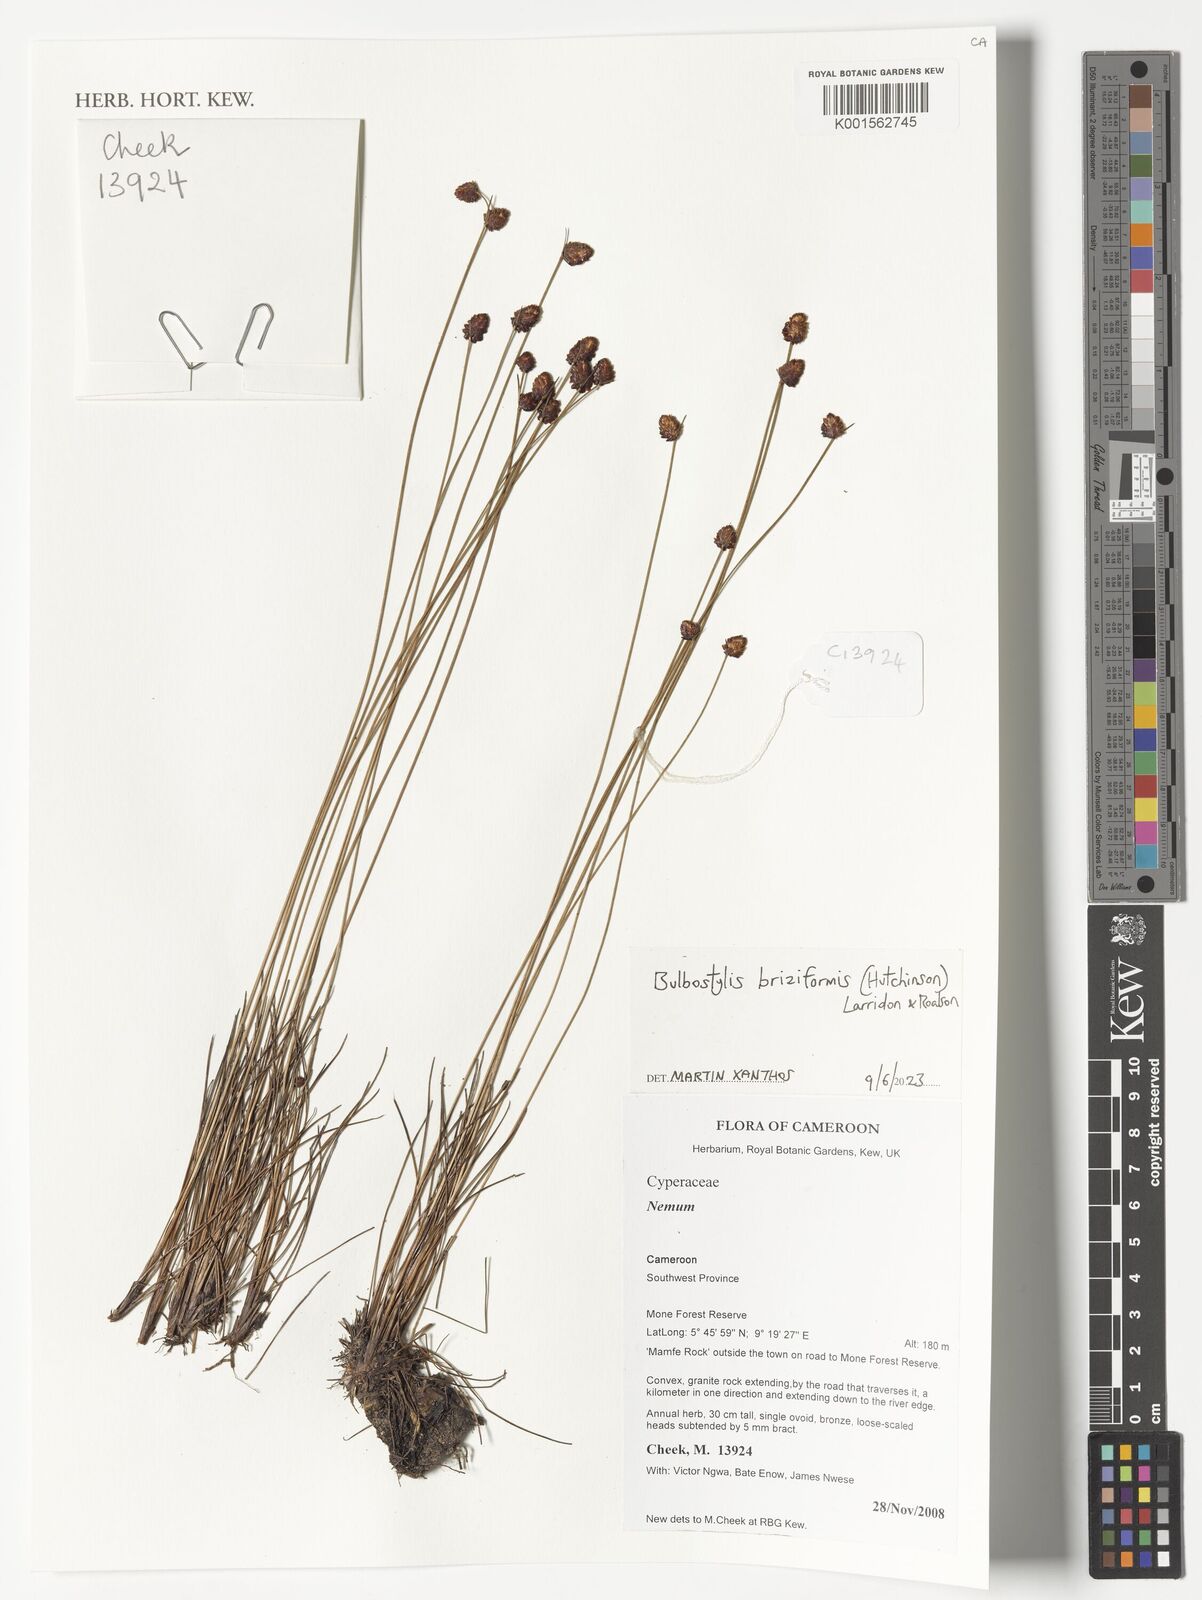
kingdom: Plantae
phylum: Tracheophyta
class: Liliopsida
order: Poales
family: Cyperaceae
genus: Bulbostylis
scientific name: Bulbostylis briziformis
